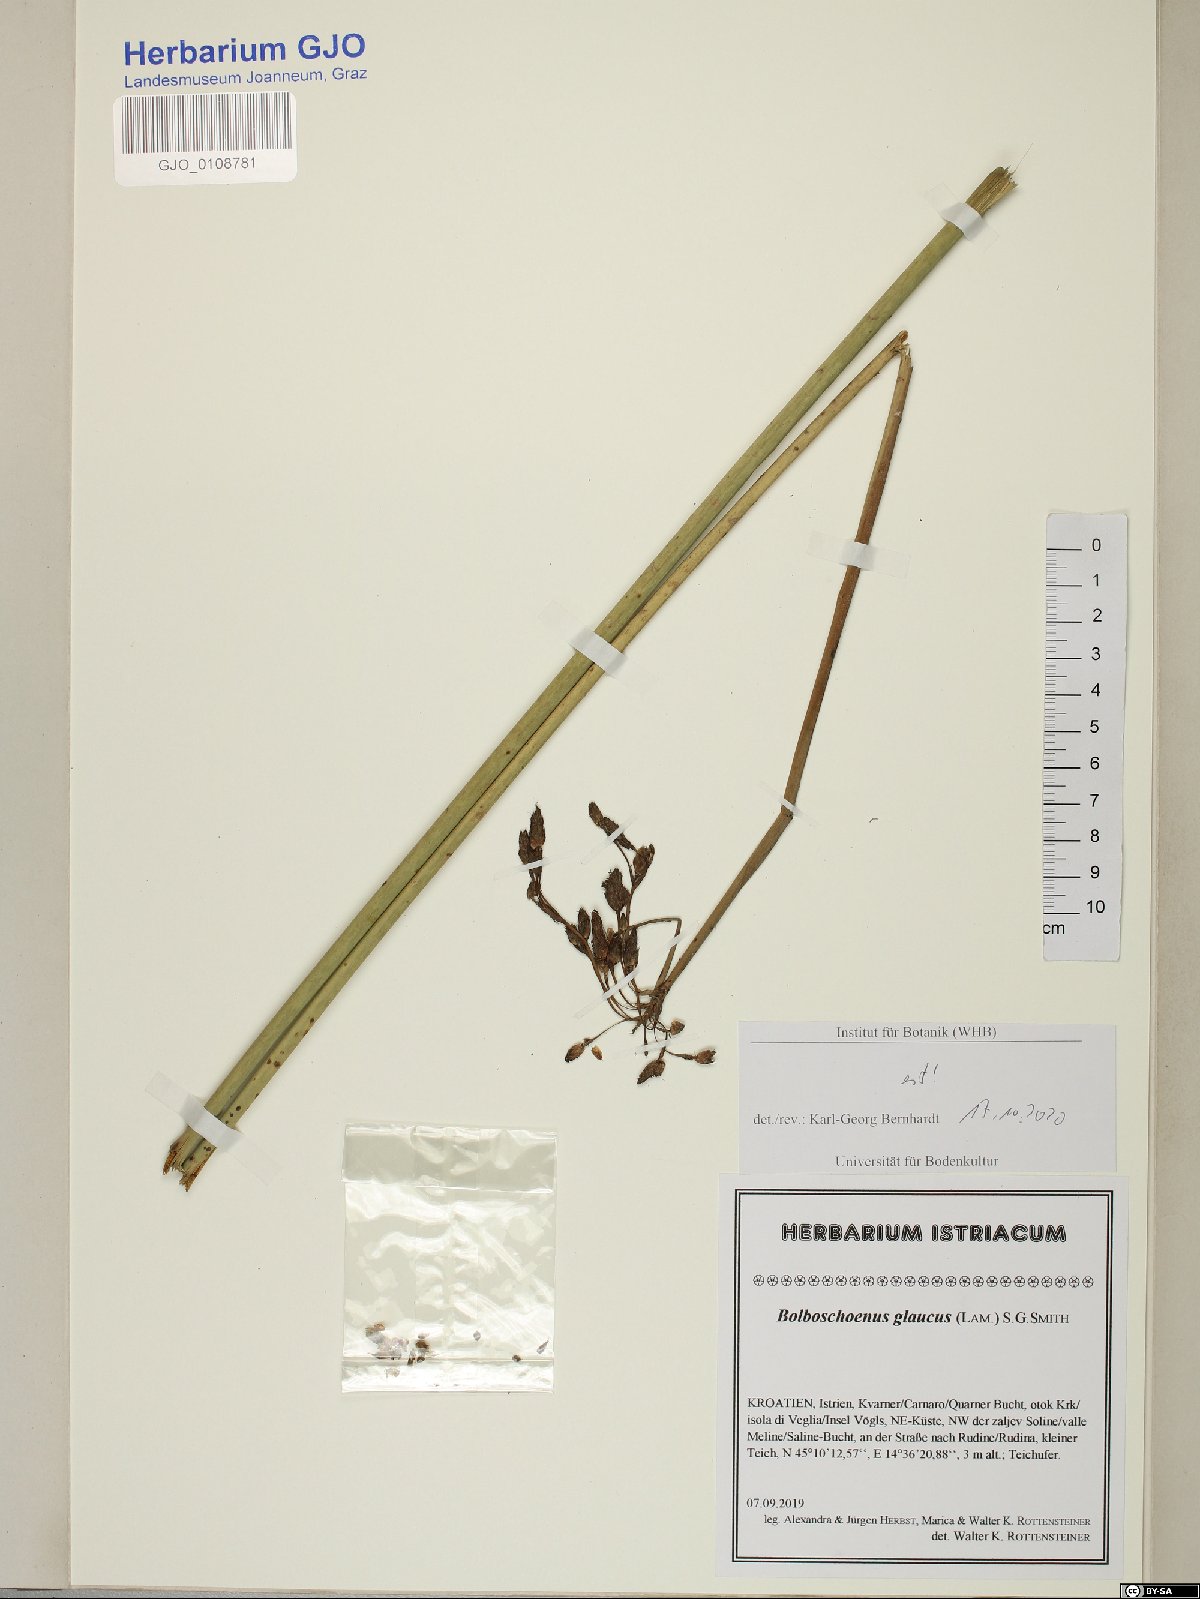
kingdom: Plantae
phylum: Tracheophyta
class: Liliopsida
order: Poales
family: Cyperaceae
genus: Bolboschoenus
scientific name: Bolboschoenus glaucus
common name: Tuberous bulrush
